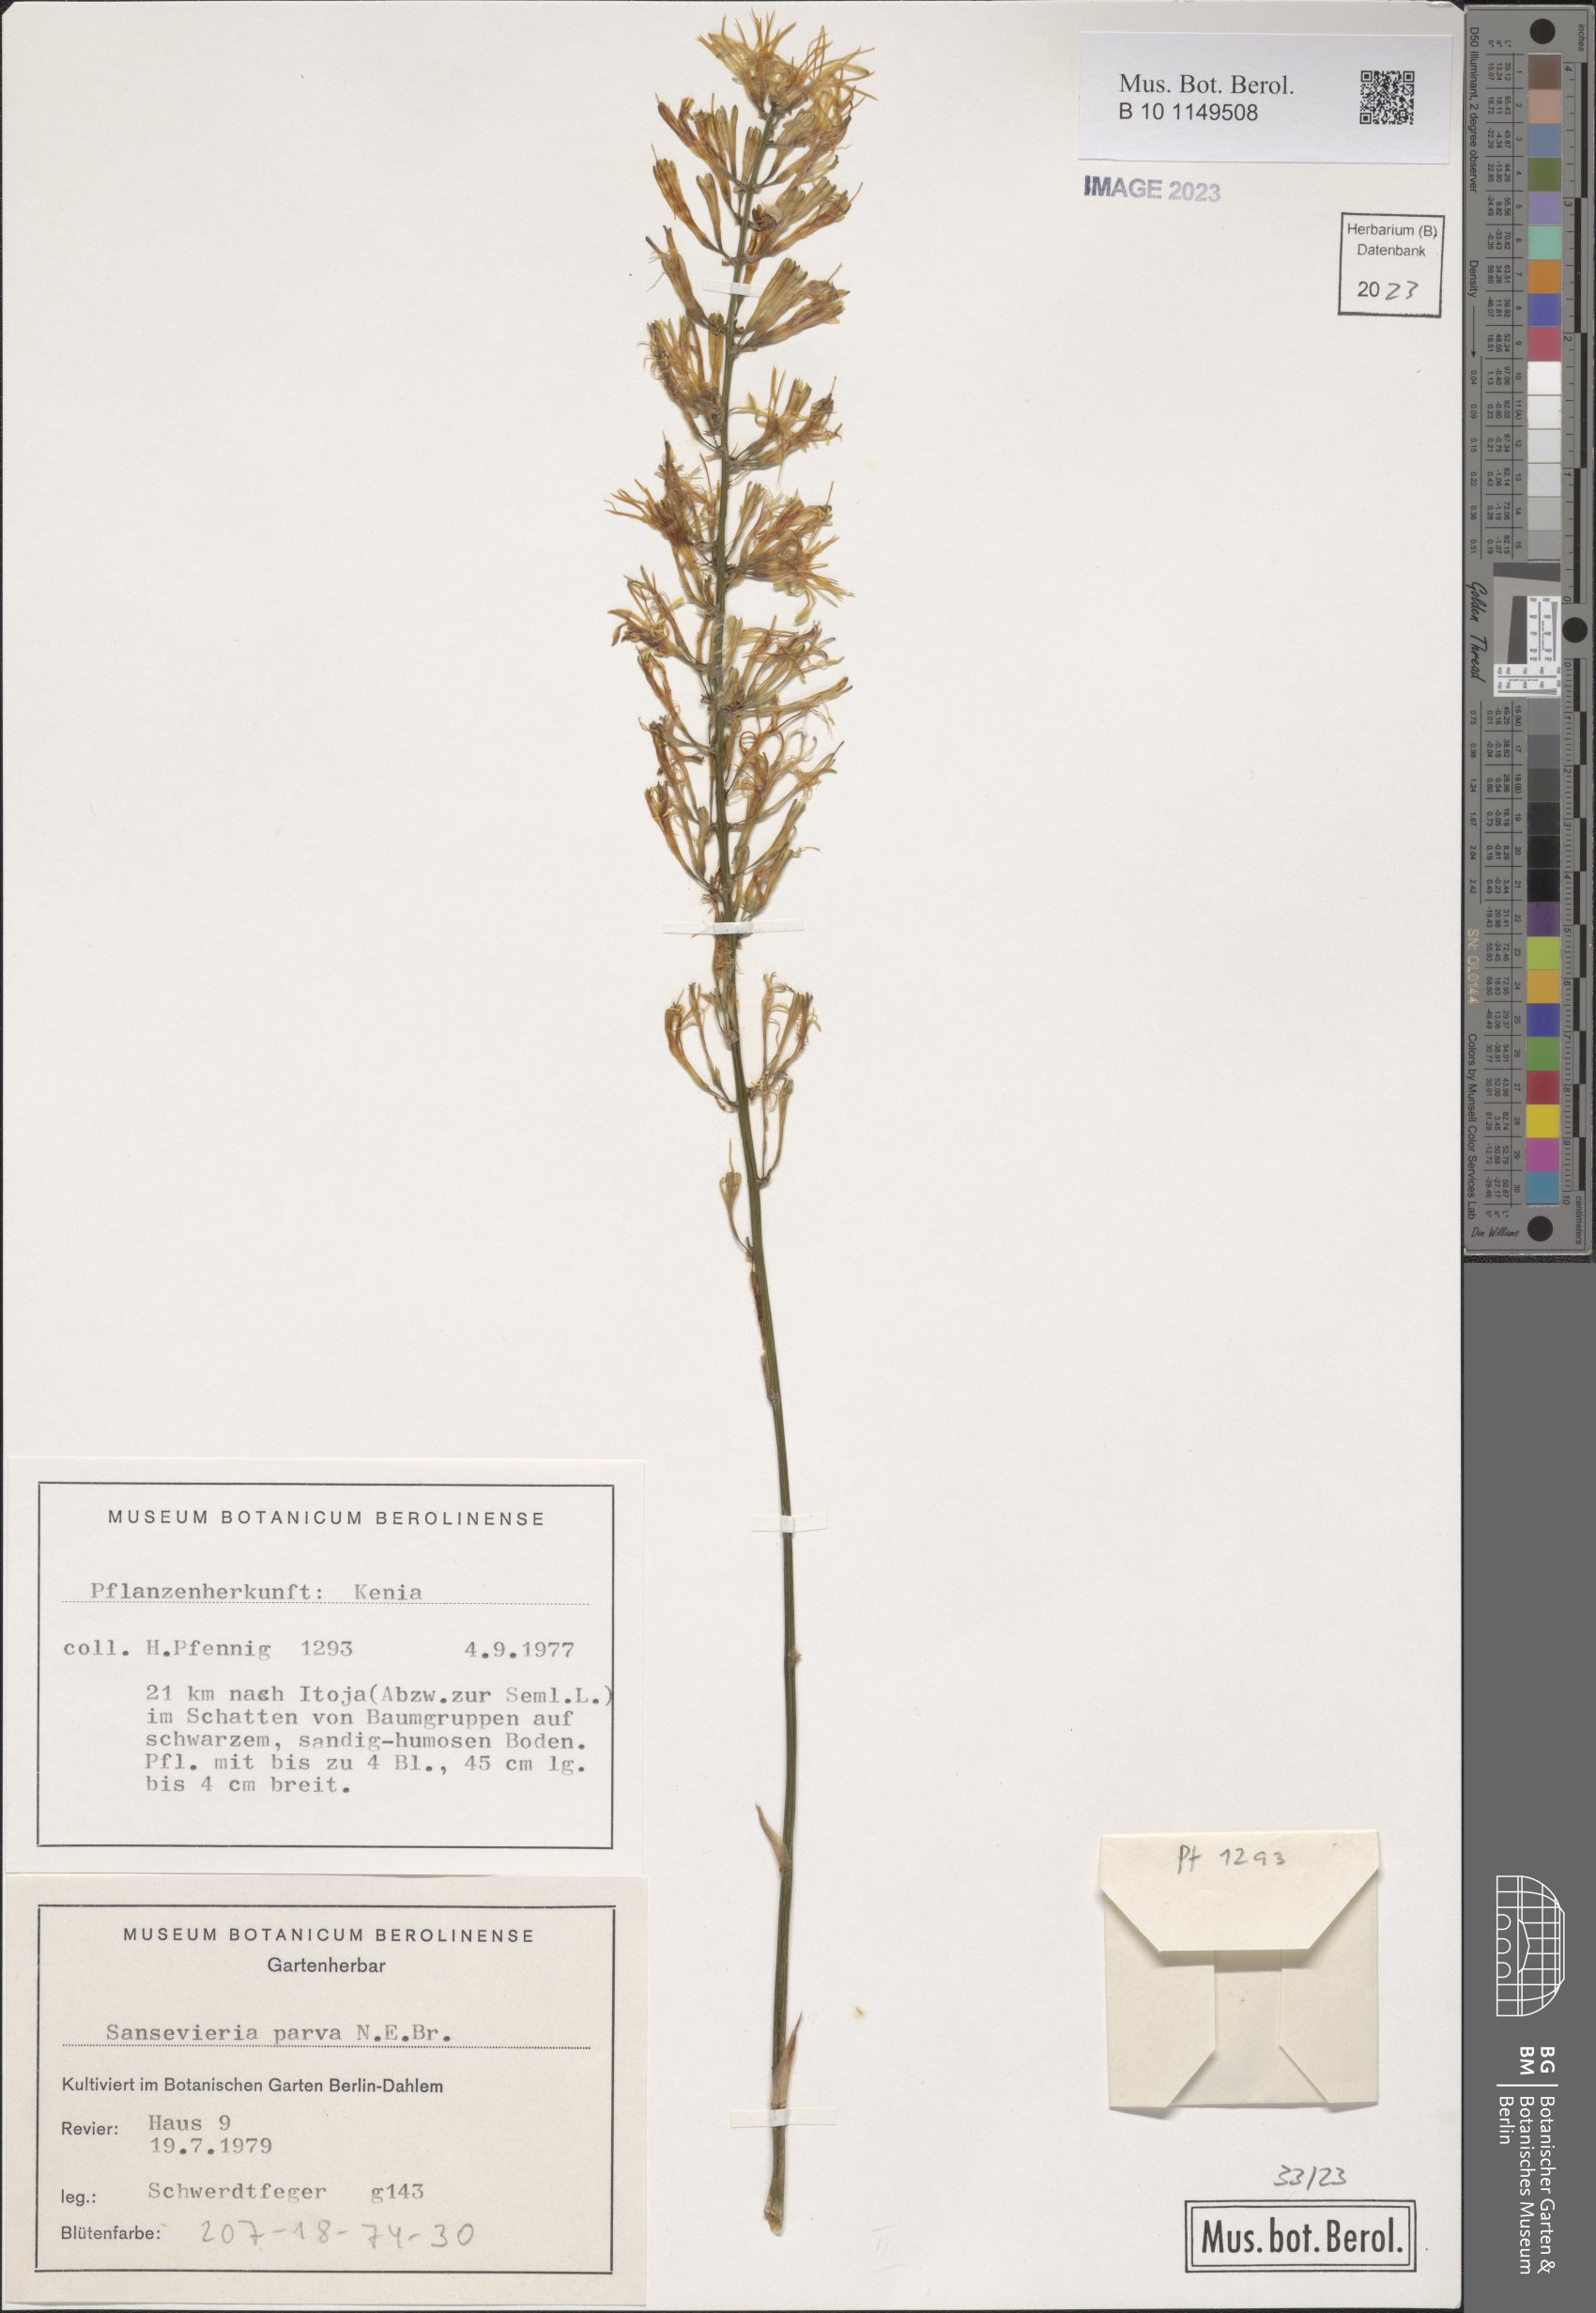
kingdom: Plantae
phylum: Tracheophyta
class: Liliopsida
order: Asparagales
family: Asparagaceae
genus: Dracaena
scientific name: Dracaena parva
